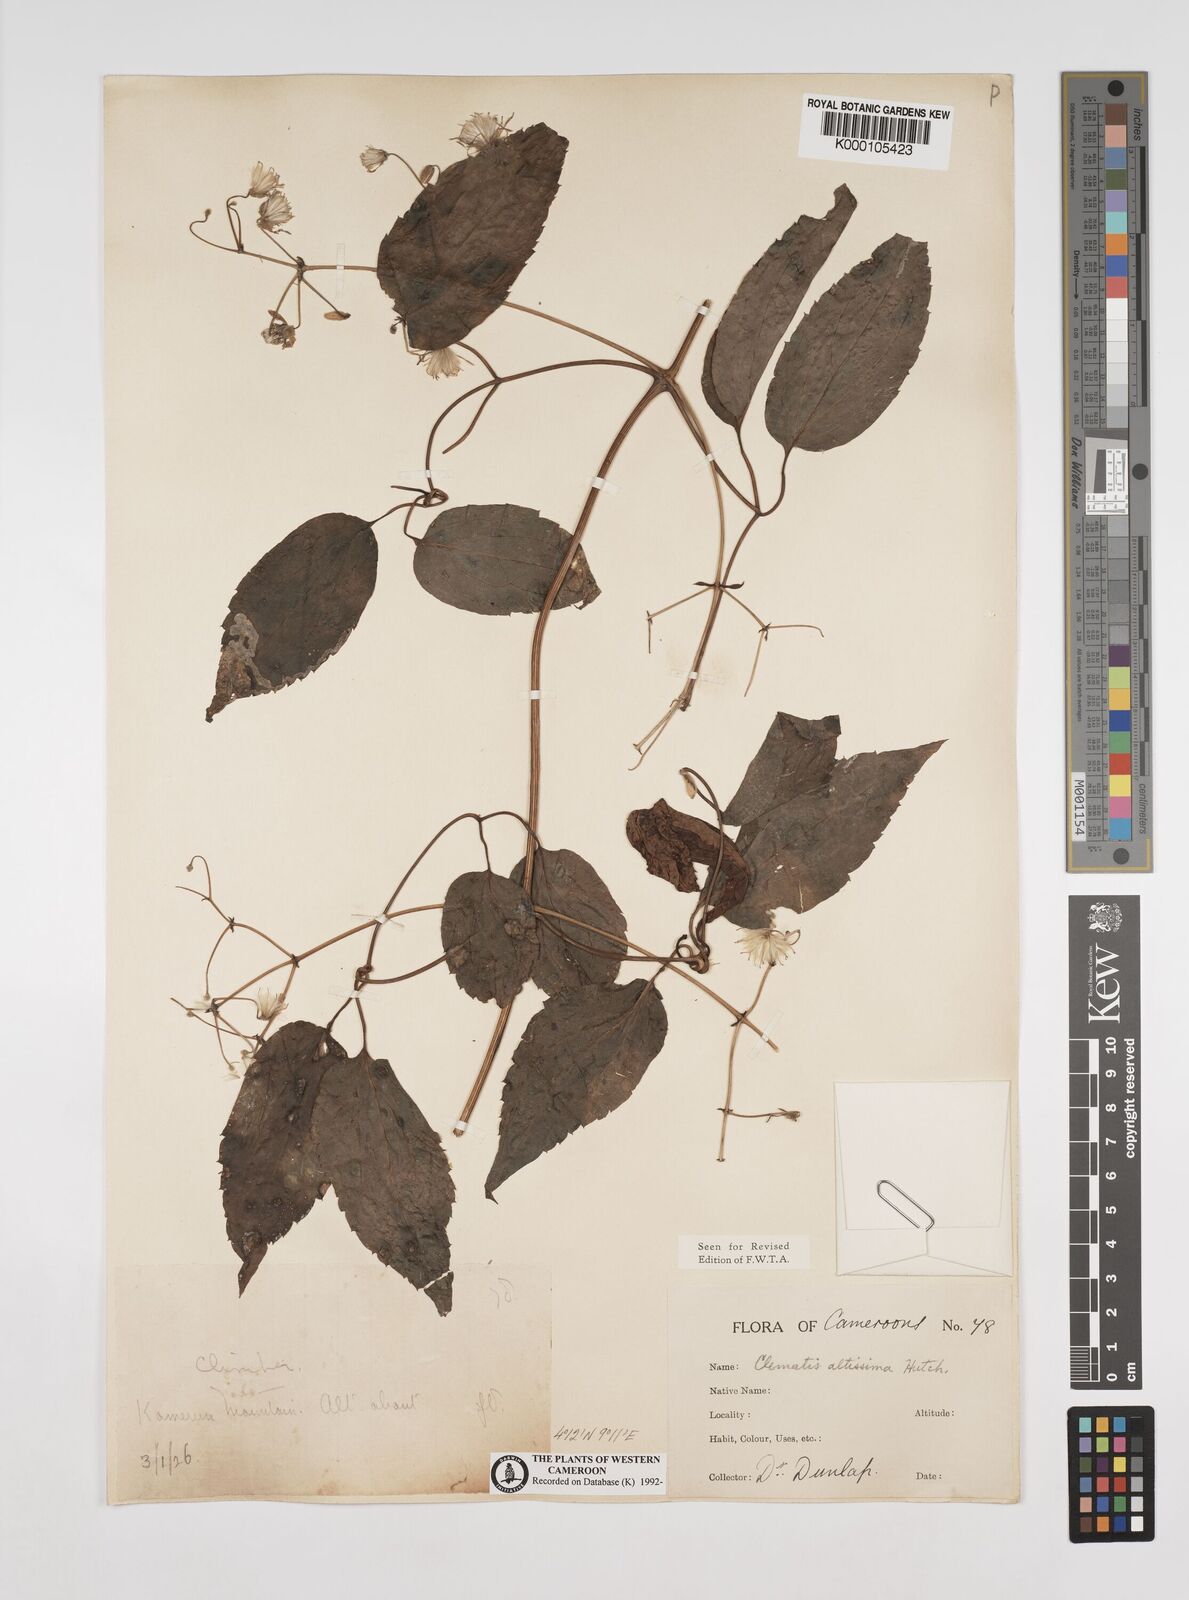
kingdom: Plantae
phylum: Tracheophyta
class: Magnoliopsida
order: Ranunculales
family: Ranunculaceae
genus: Clematis
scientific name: Clematis simensis
